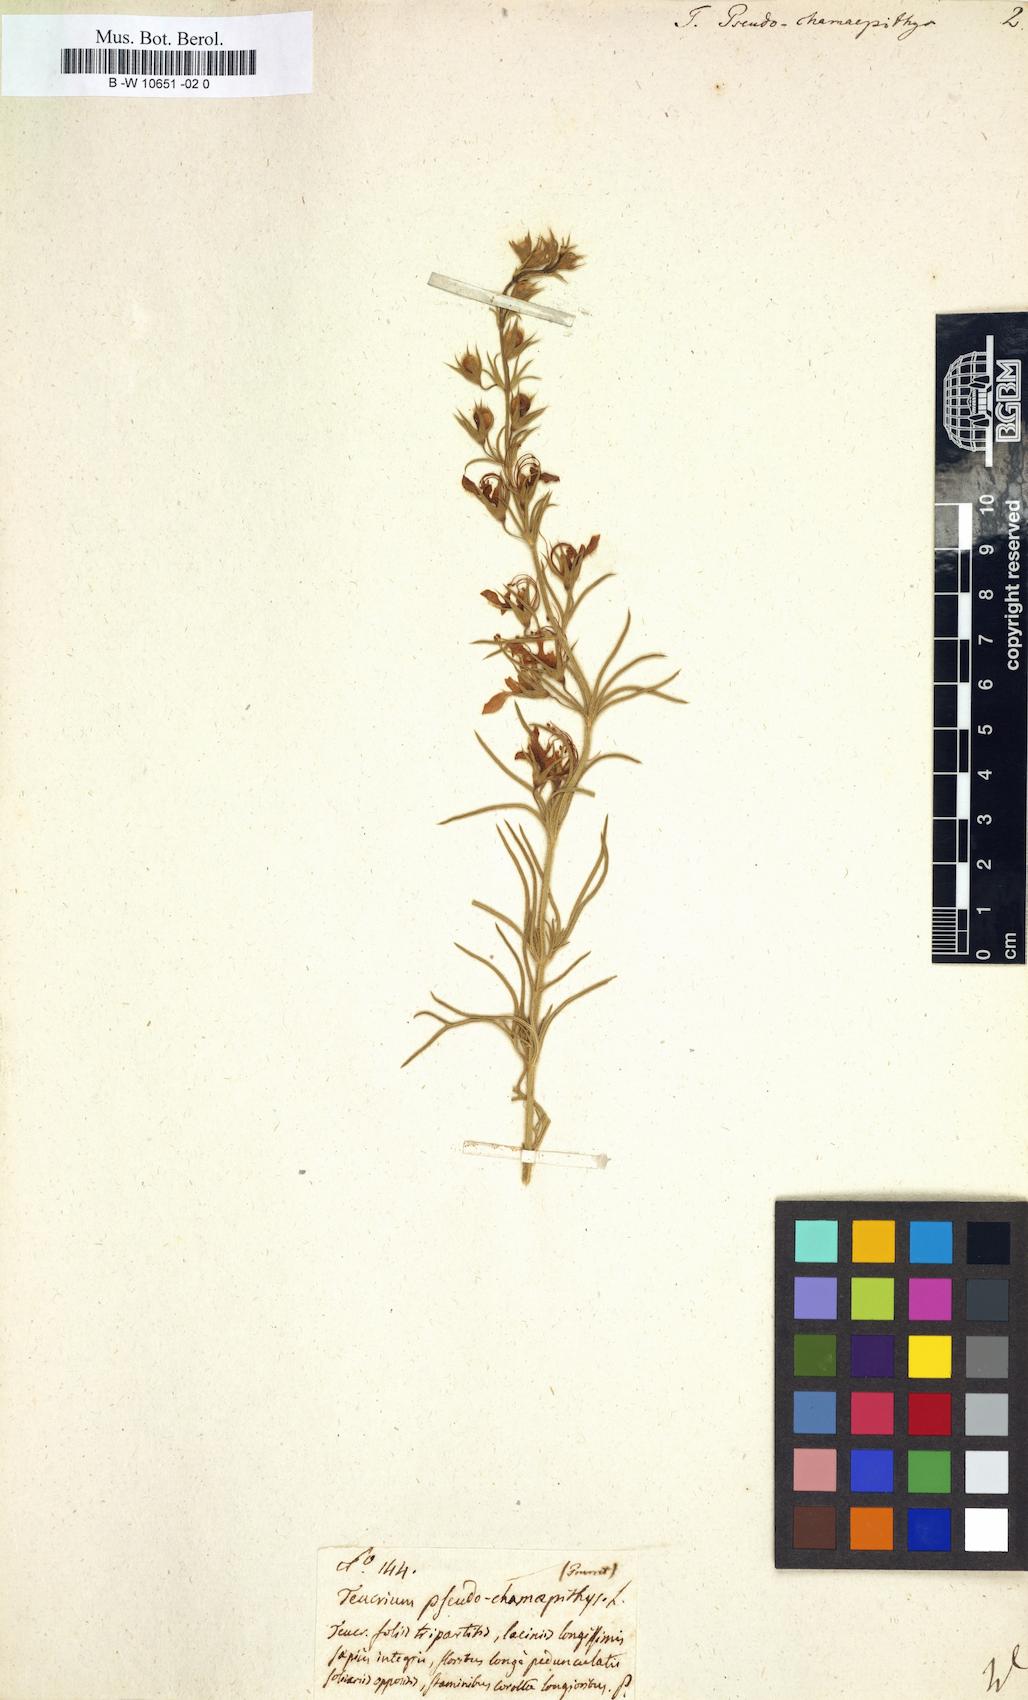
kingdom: Plantae
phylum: Tracheophyta
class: Magnoliopsida
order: Lamiales
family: Lamiaceae
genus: Teucrium
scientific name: Teucrium pseudochamaepitys
